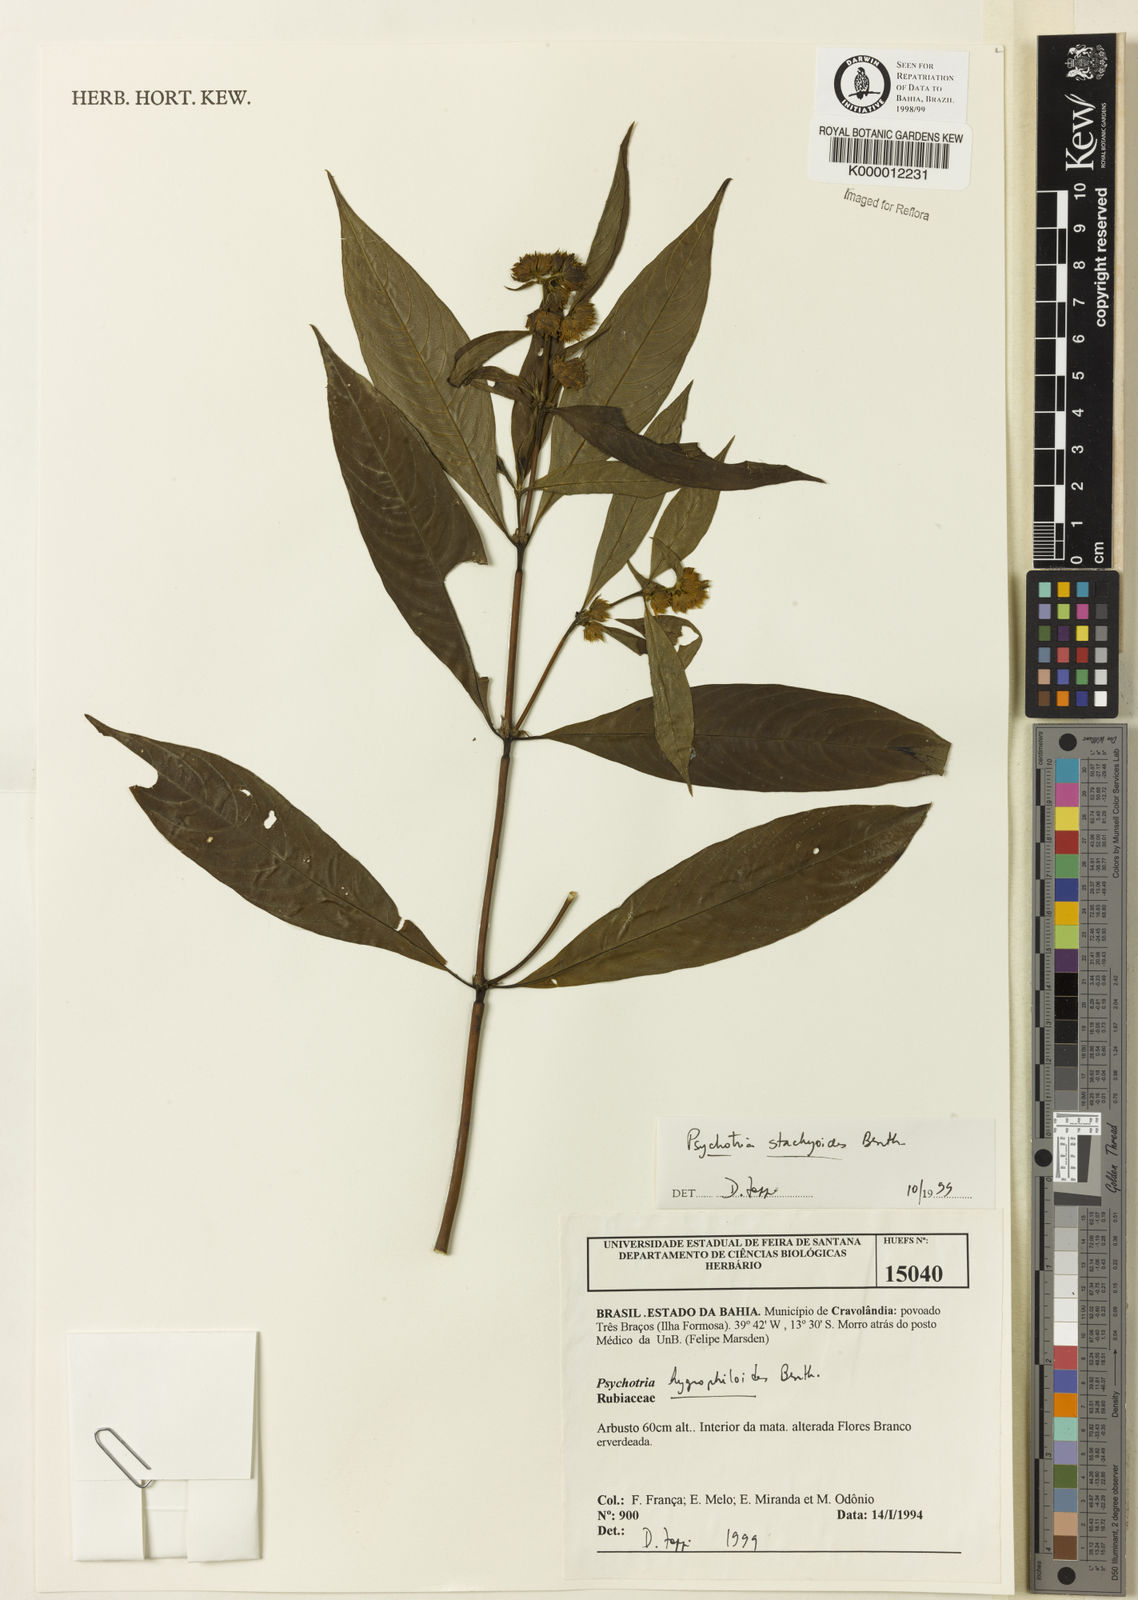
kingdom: Plantae
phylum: Tracheophyta
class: Magnoliopsida
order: Gentianales
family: Rubiaceae
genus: Psychotria
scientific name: Psychotria stachyoides
